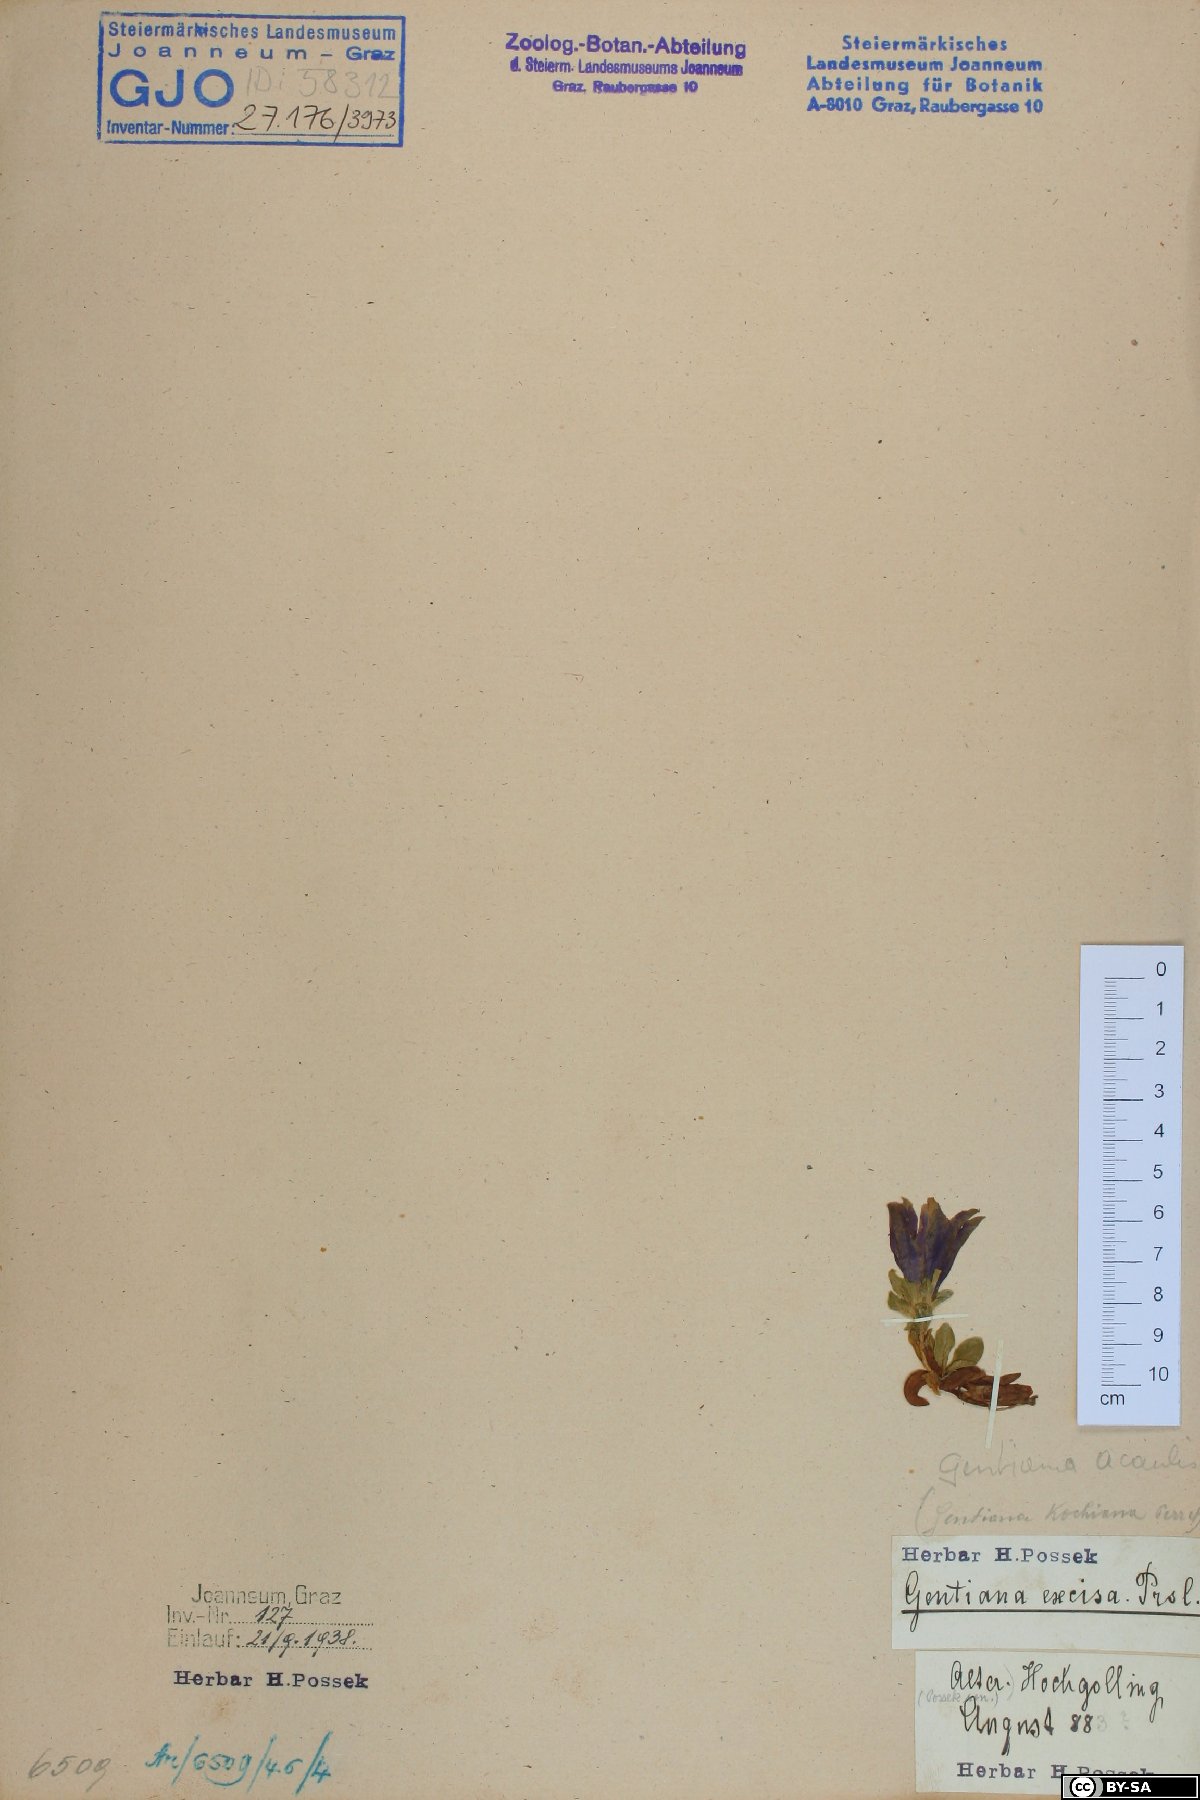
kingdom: Plantae
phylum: Tracheophyta
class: Magnoliopsida
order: Gentianales
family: Gentianaceae
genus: Gentiana
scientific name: Gentiana acaulis
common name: Trumpet gentian
